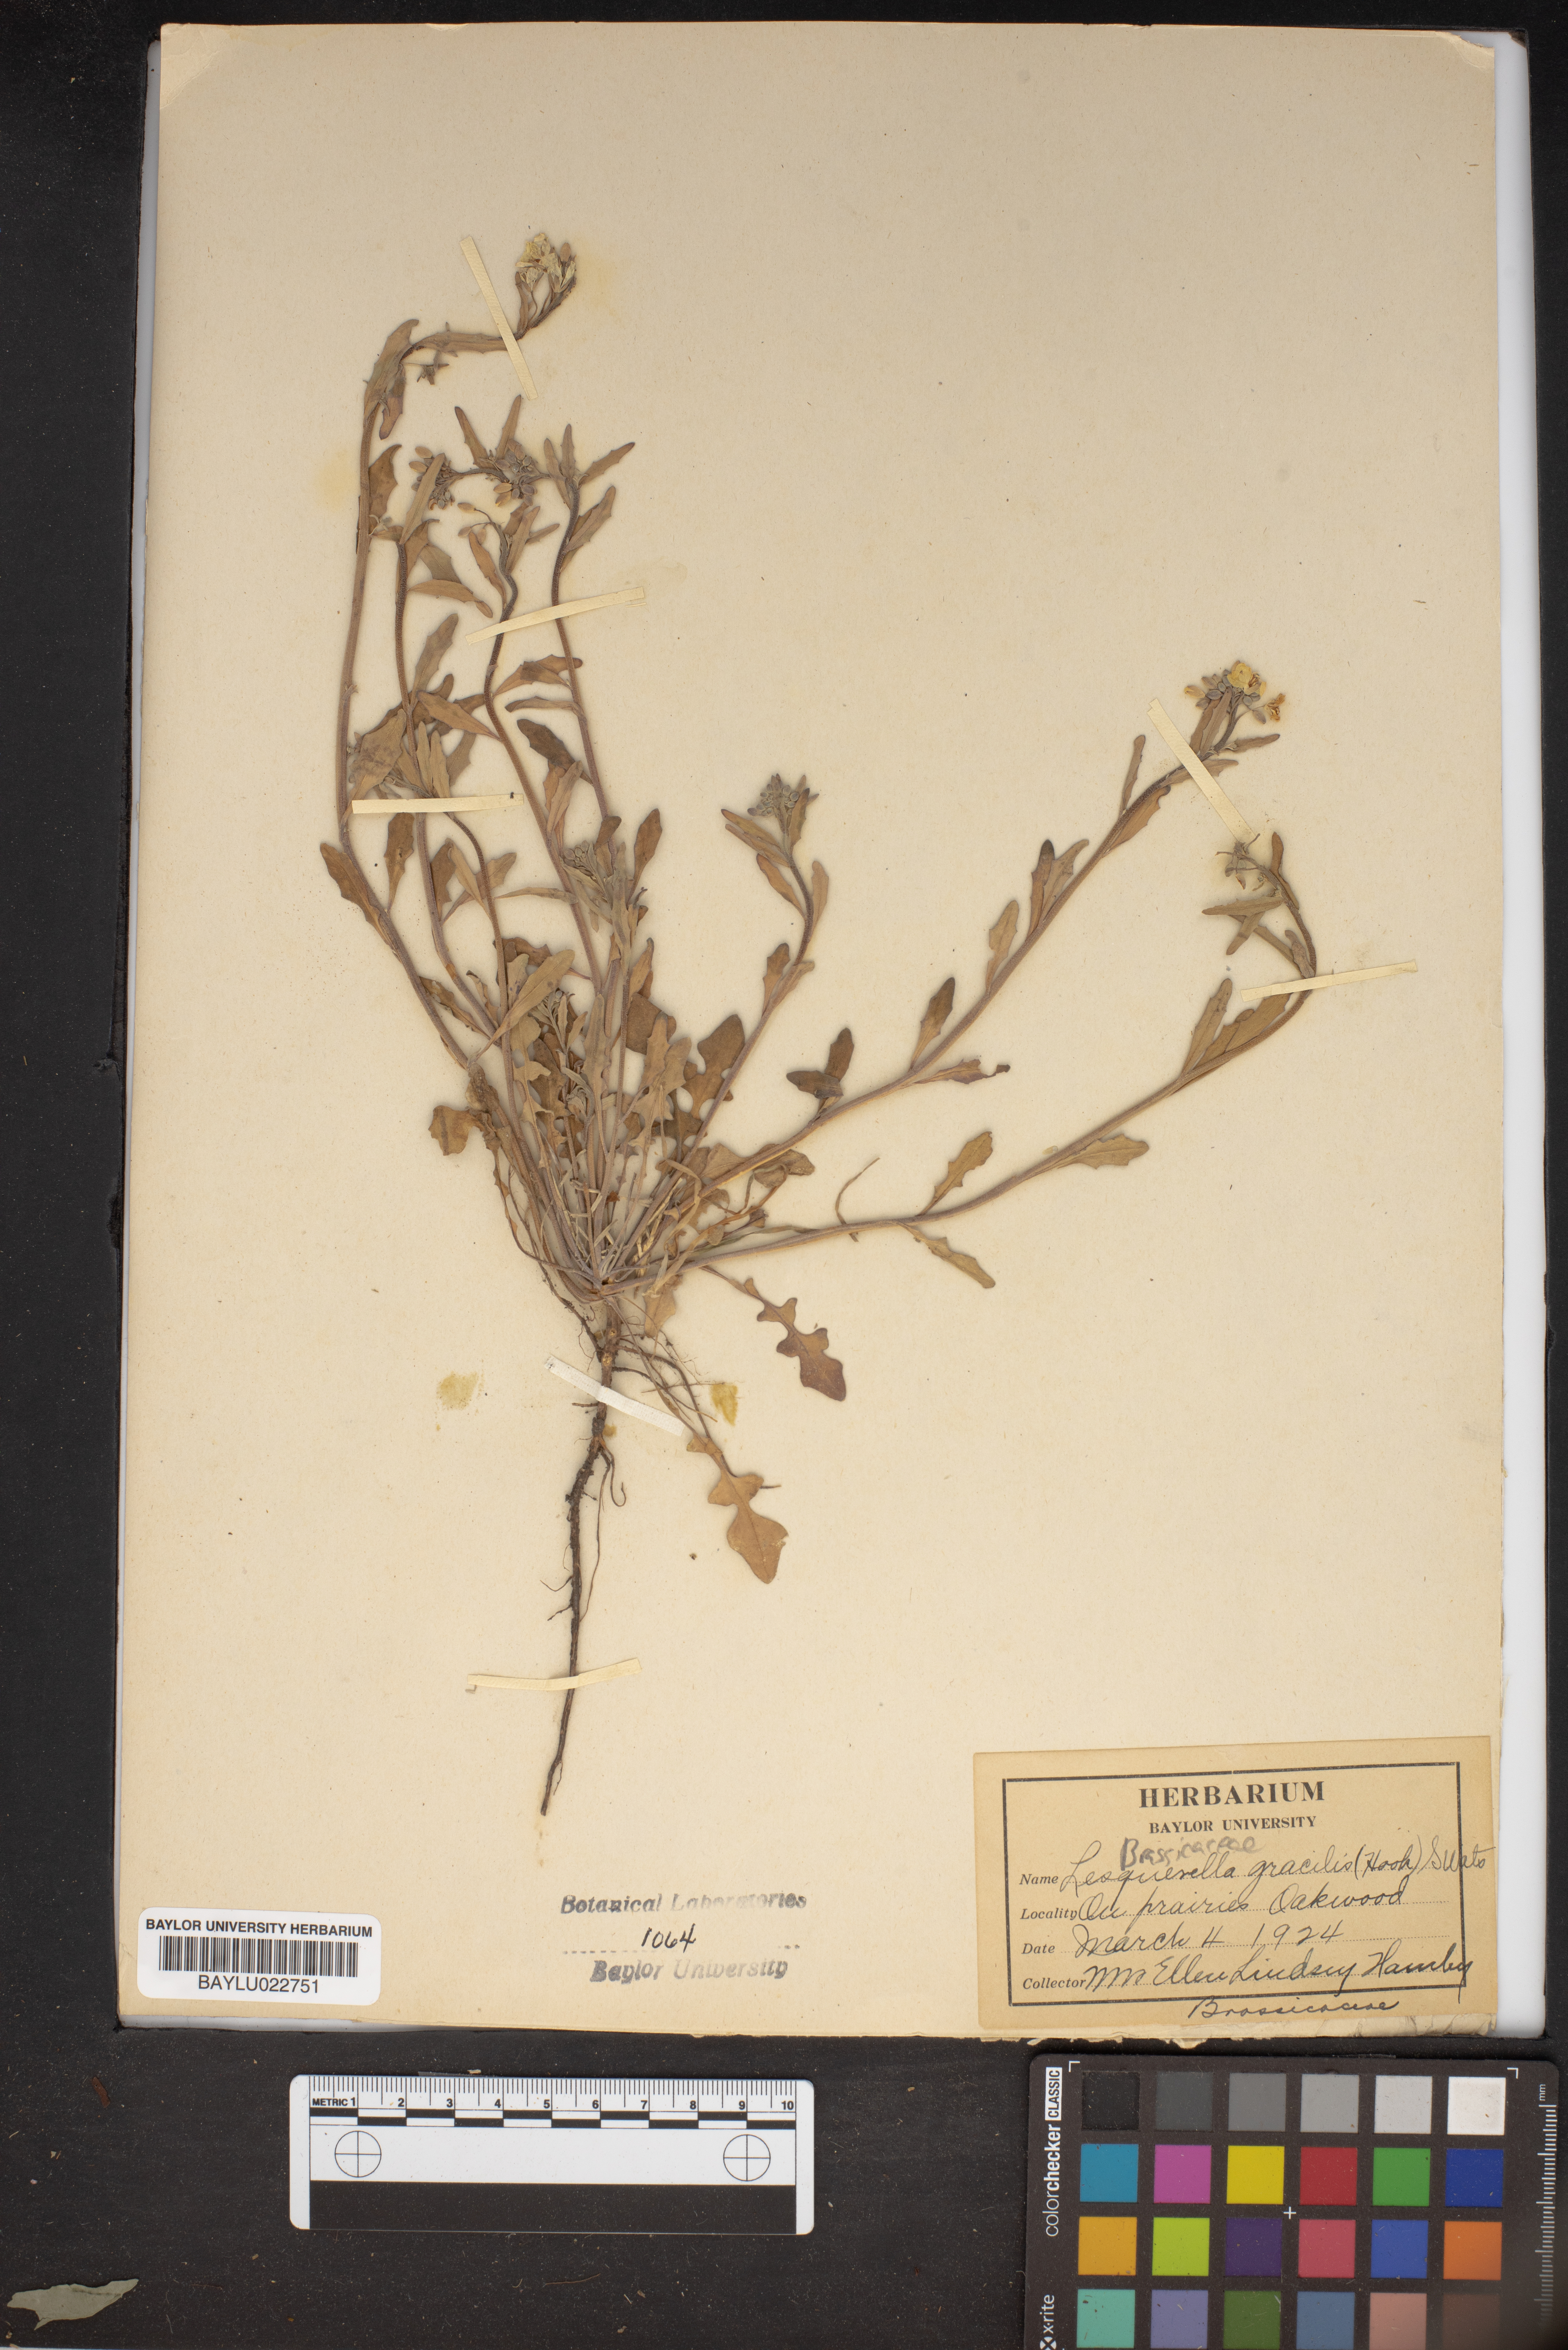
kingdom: Plantae
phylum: Tracheophyta
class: Magnoliopsida
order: Brassicales
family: Brassicaceae
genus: Physaria
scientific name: Physaria gracilis
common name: Spreading bladderpod
